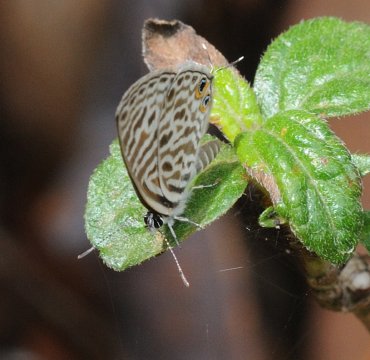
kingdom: Animalia
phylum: Arthropoda
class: Insecta
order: Lepidoptera
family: Lycaenidae
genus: Leptotes
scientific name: Leptotes pirithous
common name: Lang's Short-tailed Blue
